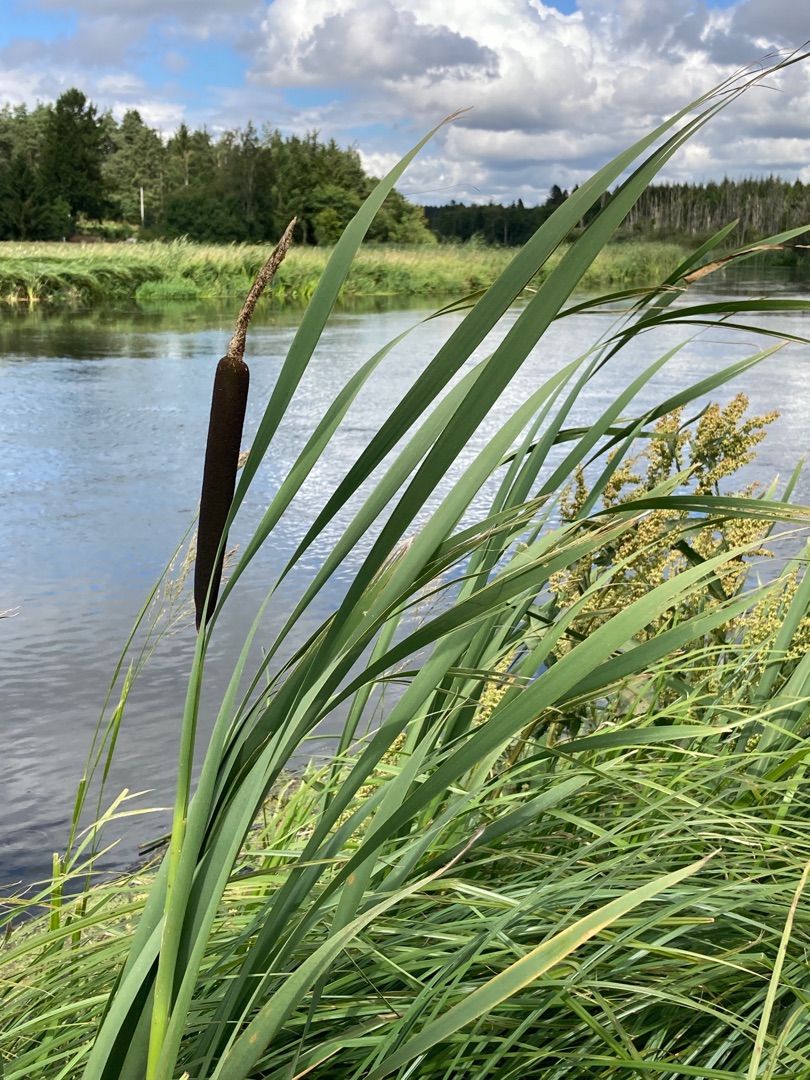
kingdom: Plantae
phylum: Tracheophyta
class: Liliopsida
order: Poales
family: Typhaceae
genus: Typha
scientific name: Typha latifolia
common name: Bredbladet dunhammer
